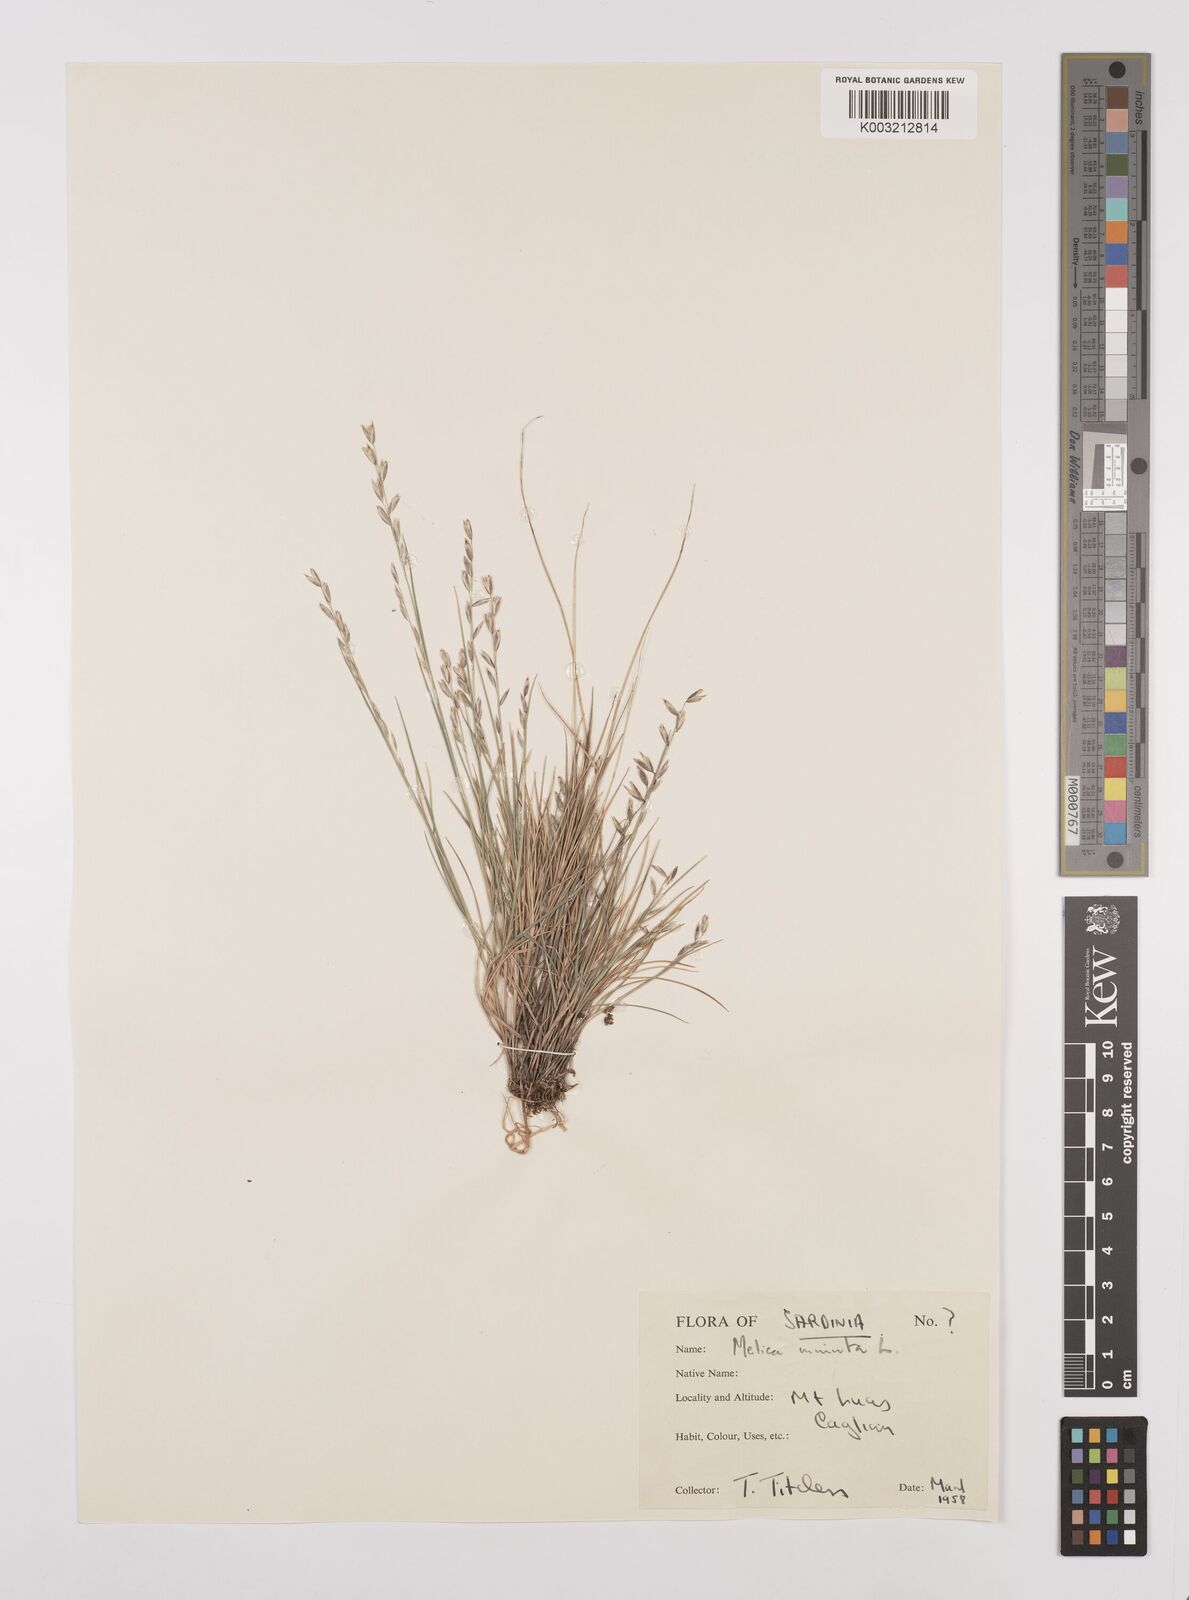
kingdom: Plantae
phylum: Tracheophyta
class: Liliopsida
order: Poales
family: Poaceae
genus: Melica
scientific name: Melica minuta
